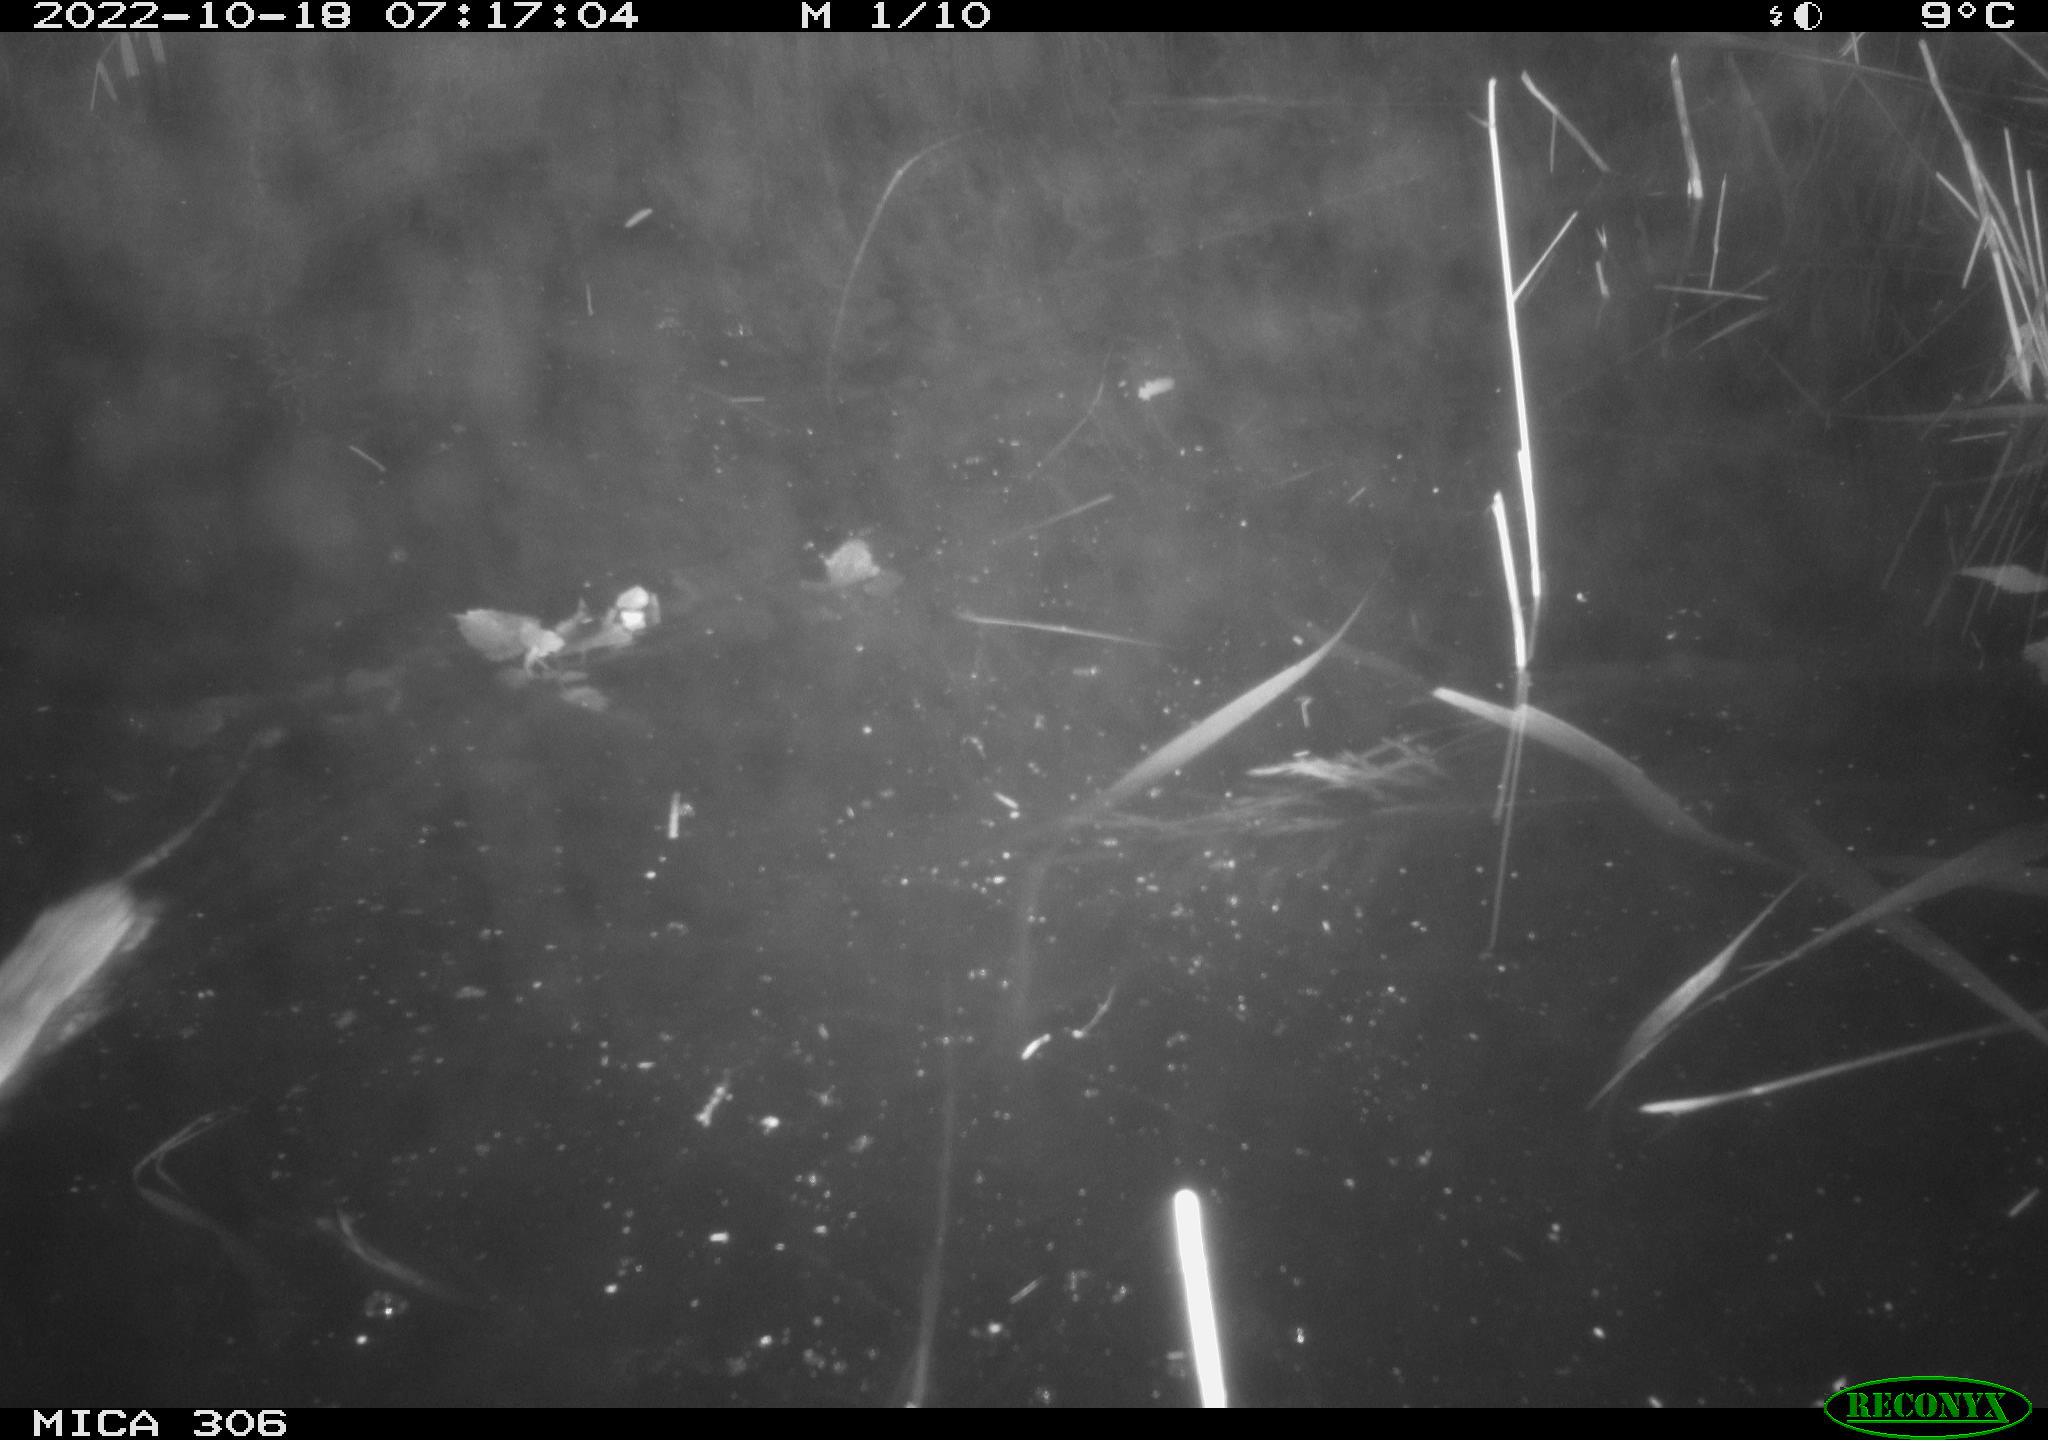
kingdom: Animalia
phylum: Chordata
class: Mammalia
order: Rodentia
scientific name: Rodentia
